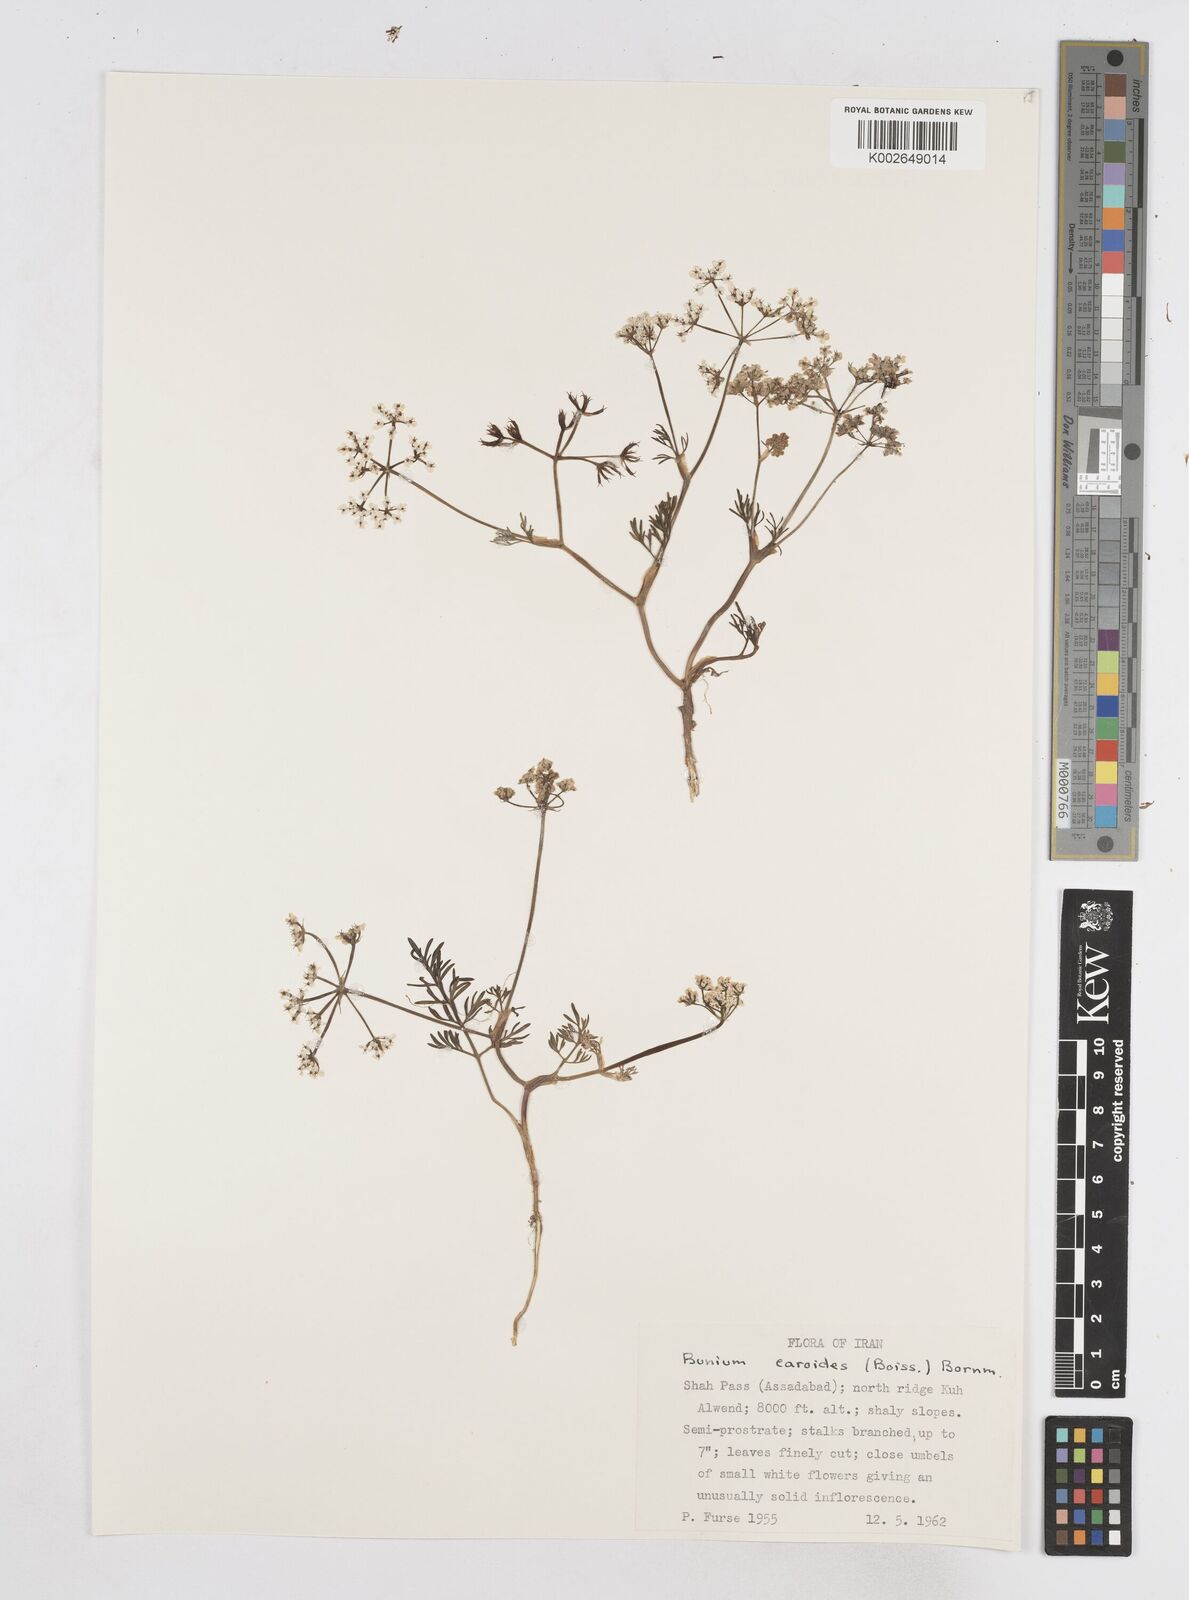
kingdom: Plantae
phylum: Tracheophyta
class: Magnoliopsida
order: Apiales
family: Apiaceae
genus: Elwendia
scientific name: Elwendia caroides
